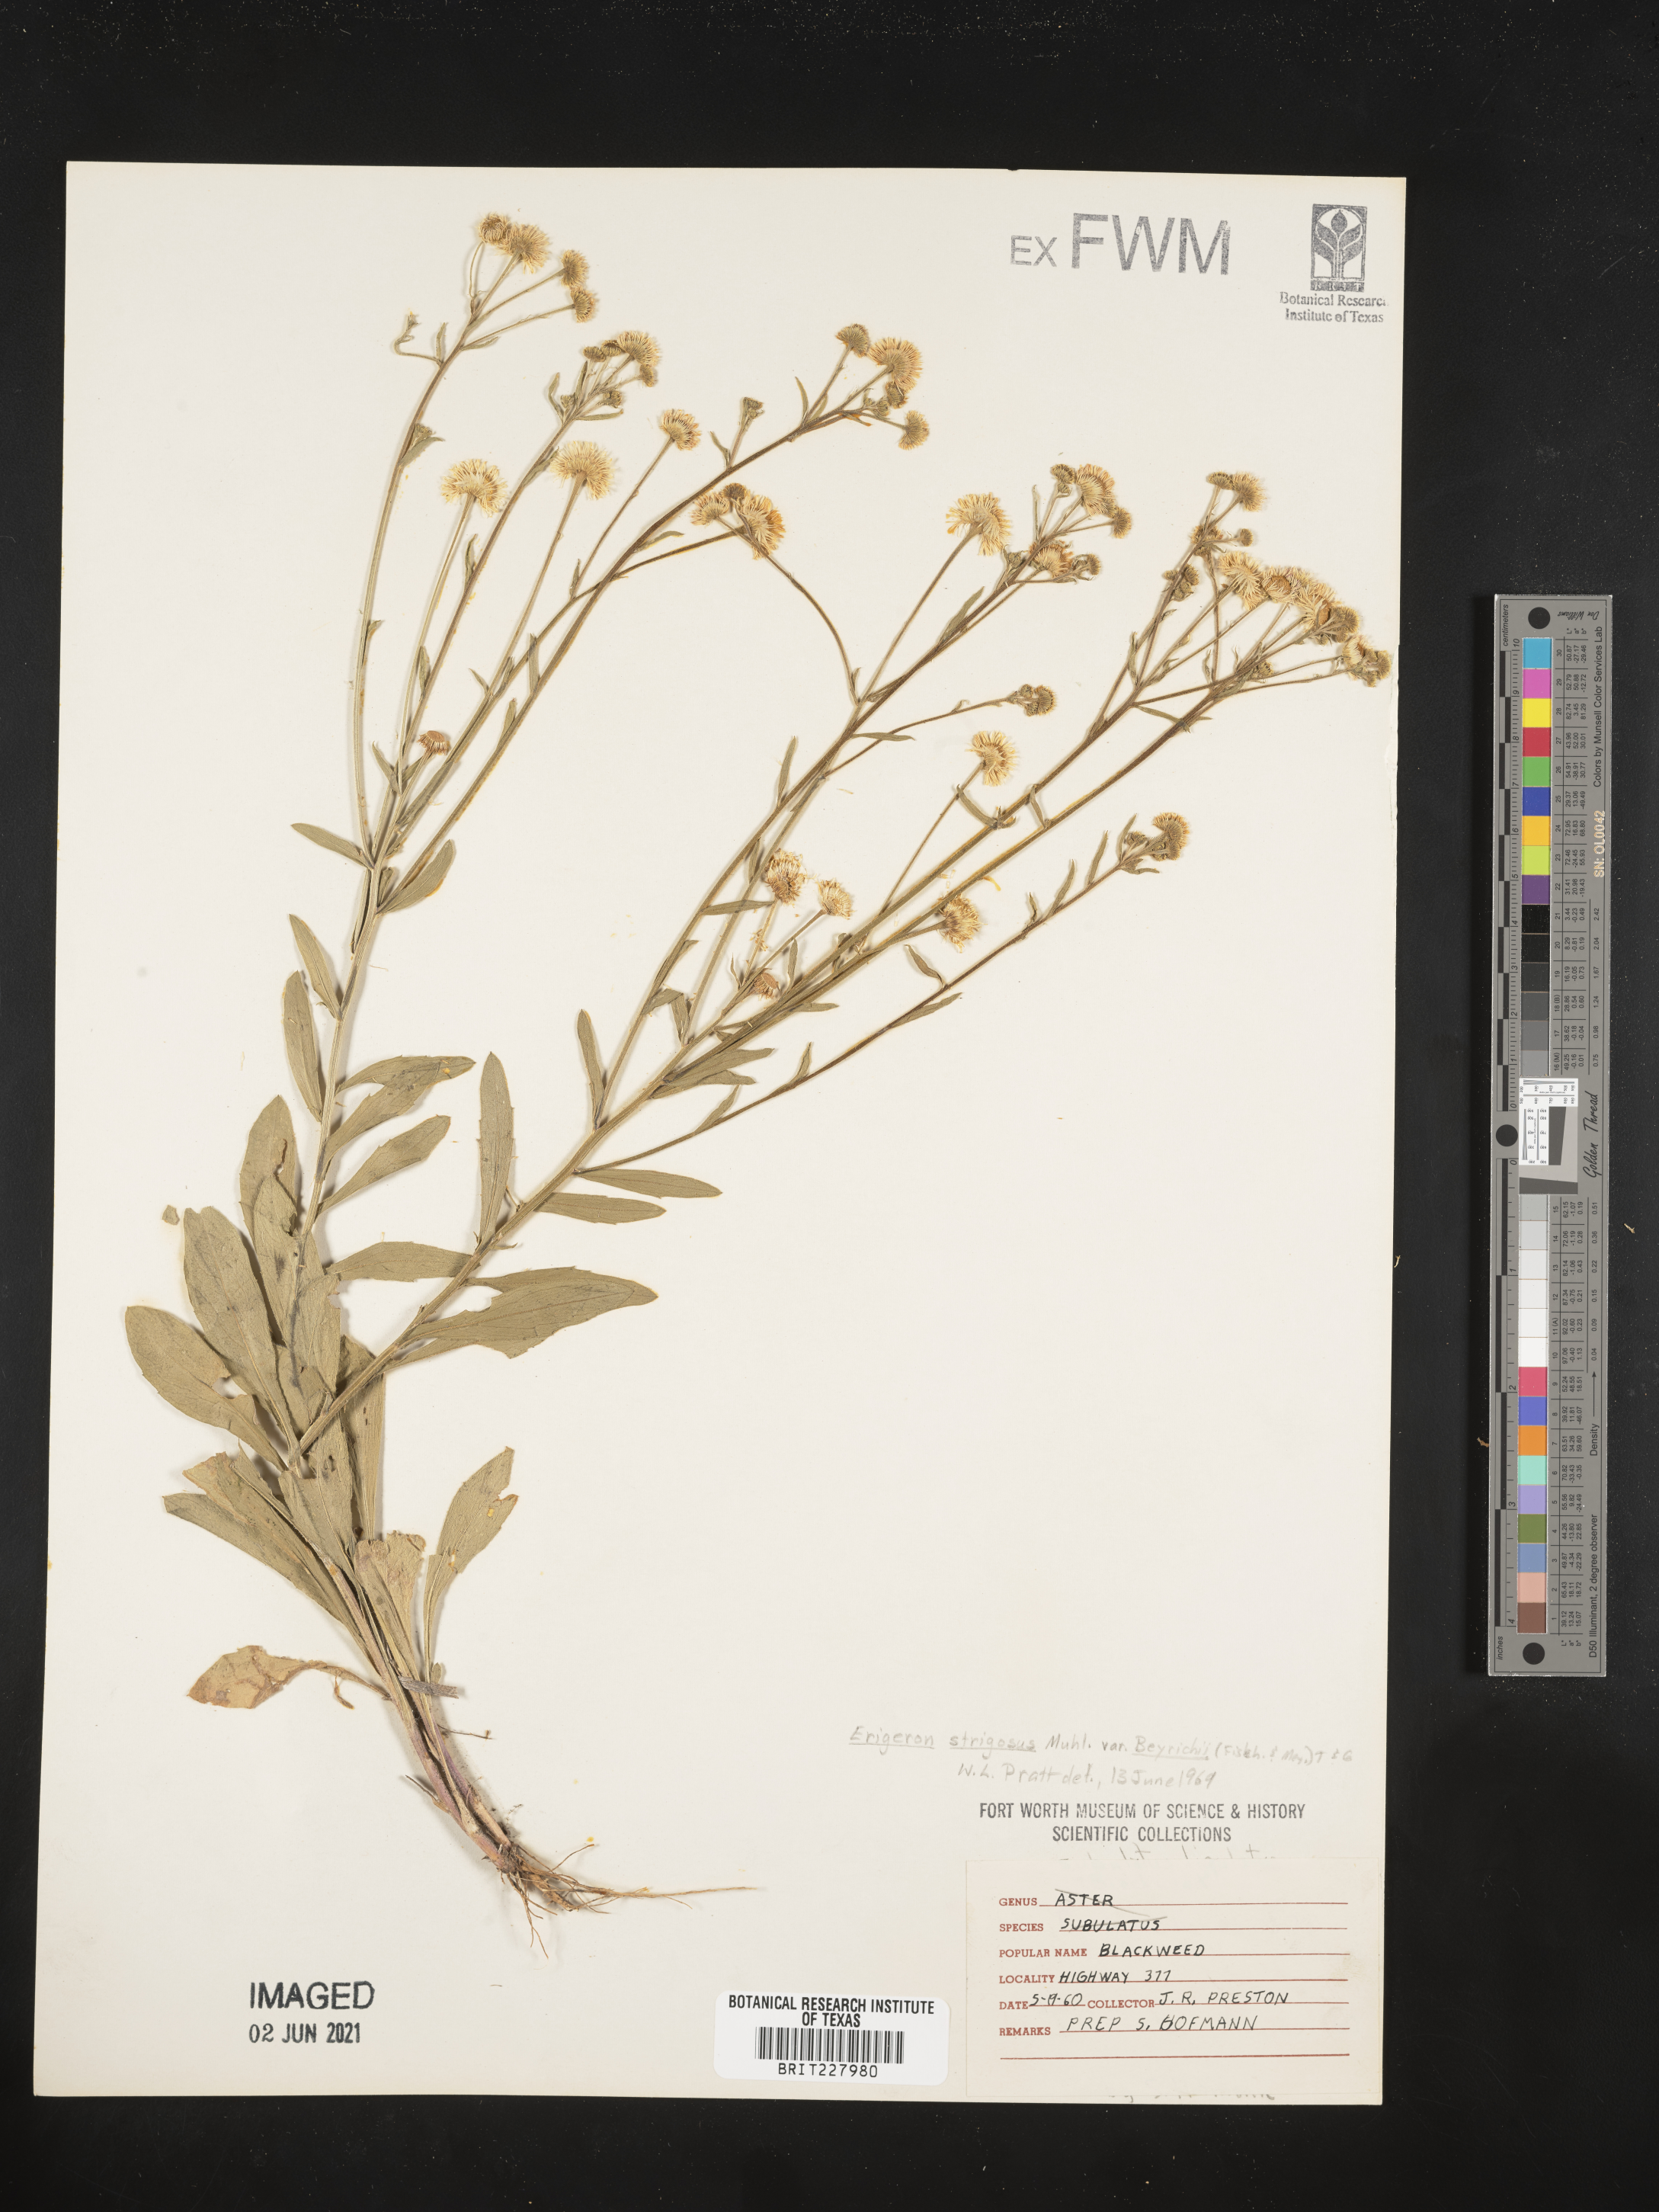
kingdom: Plantae
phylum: Tracheophyta
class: Magnoliopsida
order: Asterales
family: Asteraceae
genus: Erigeron
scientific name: Erigeron strigosus
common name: Common eastern fleabane
